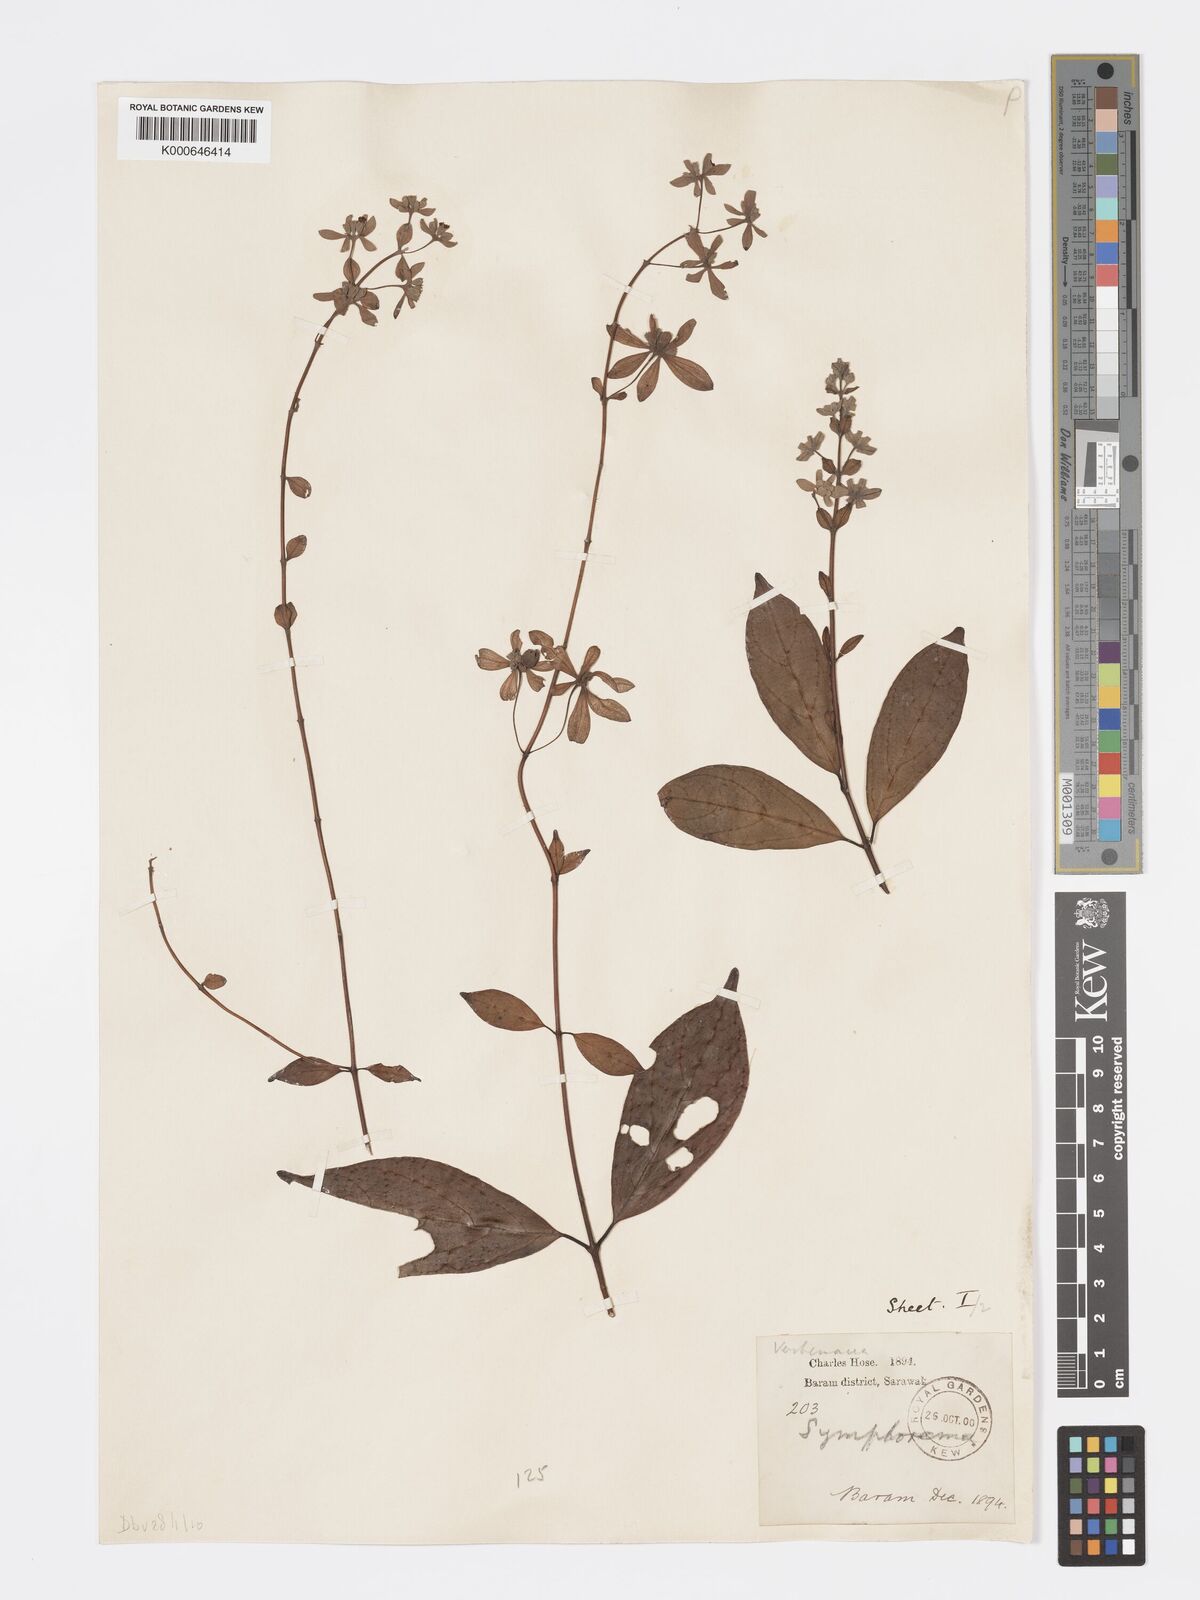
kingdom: Plantae
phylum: Tracheophyta
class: Magnoliopsida
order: Lamiales
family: Lamiaceae
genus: Sphenodesme
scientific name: Sphenodesme triflora
